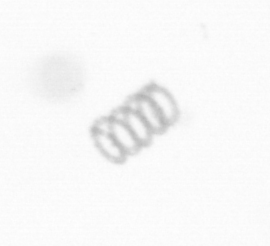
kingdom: Chromista
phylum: Ochrophyta
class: Bacillariophyceae
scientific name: Bacillariophyceae
